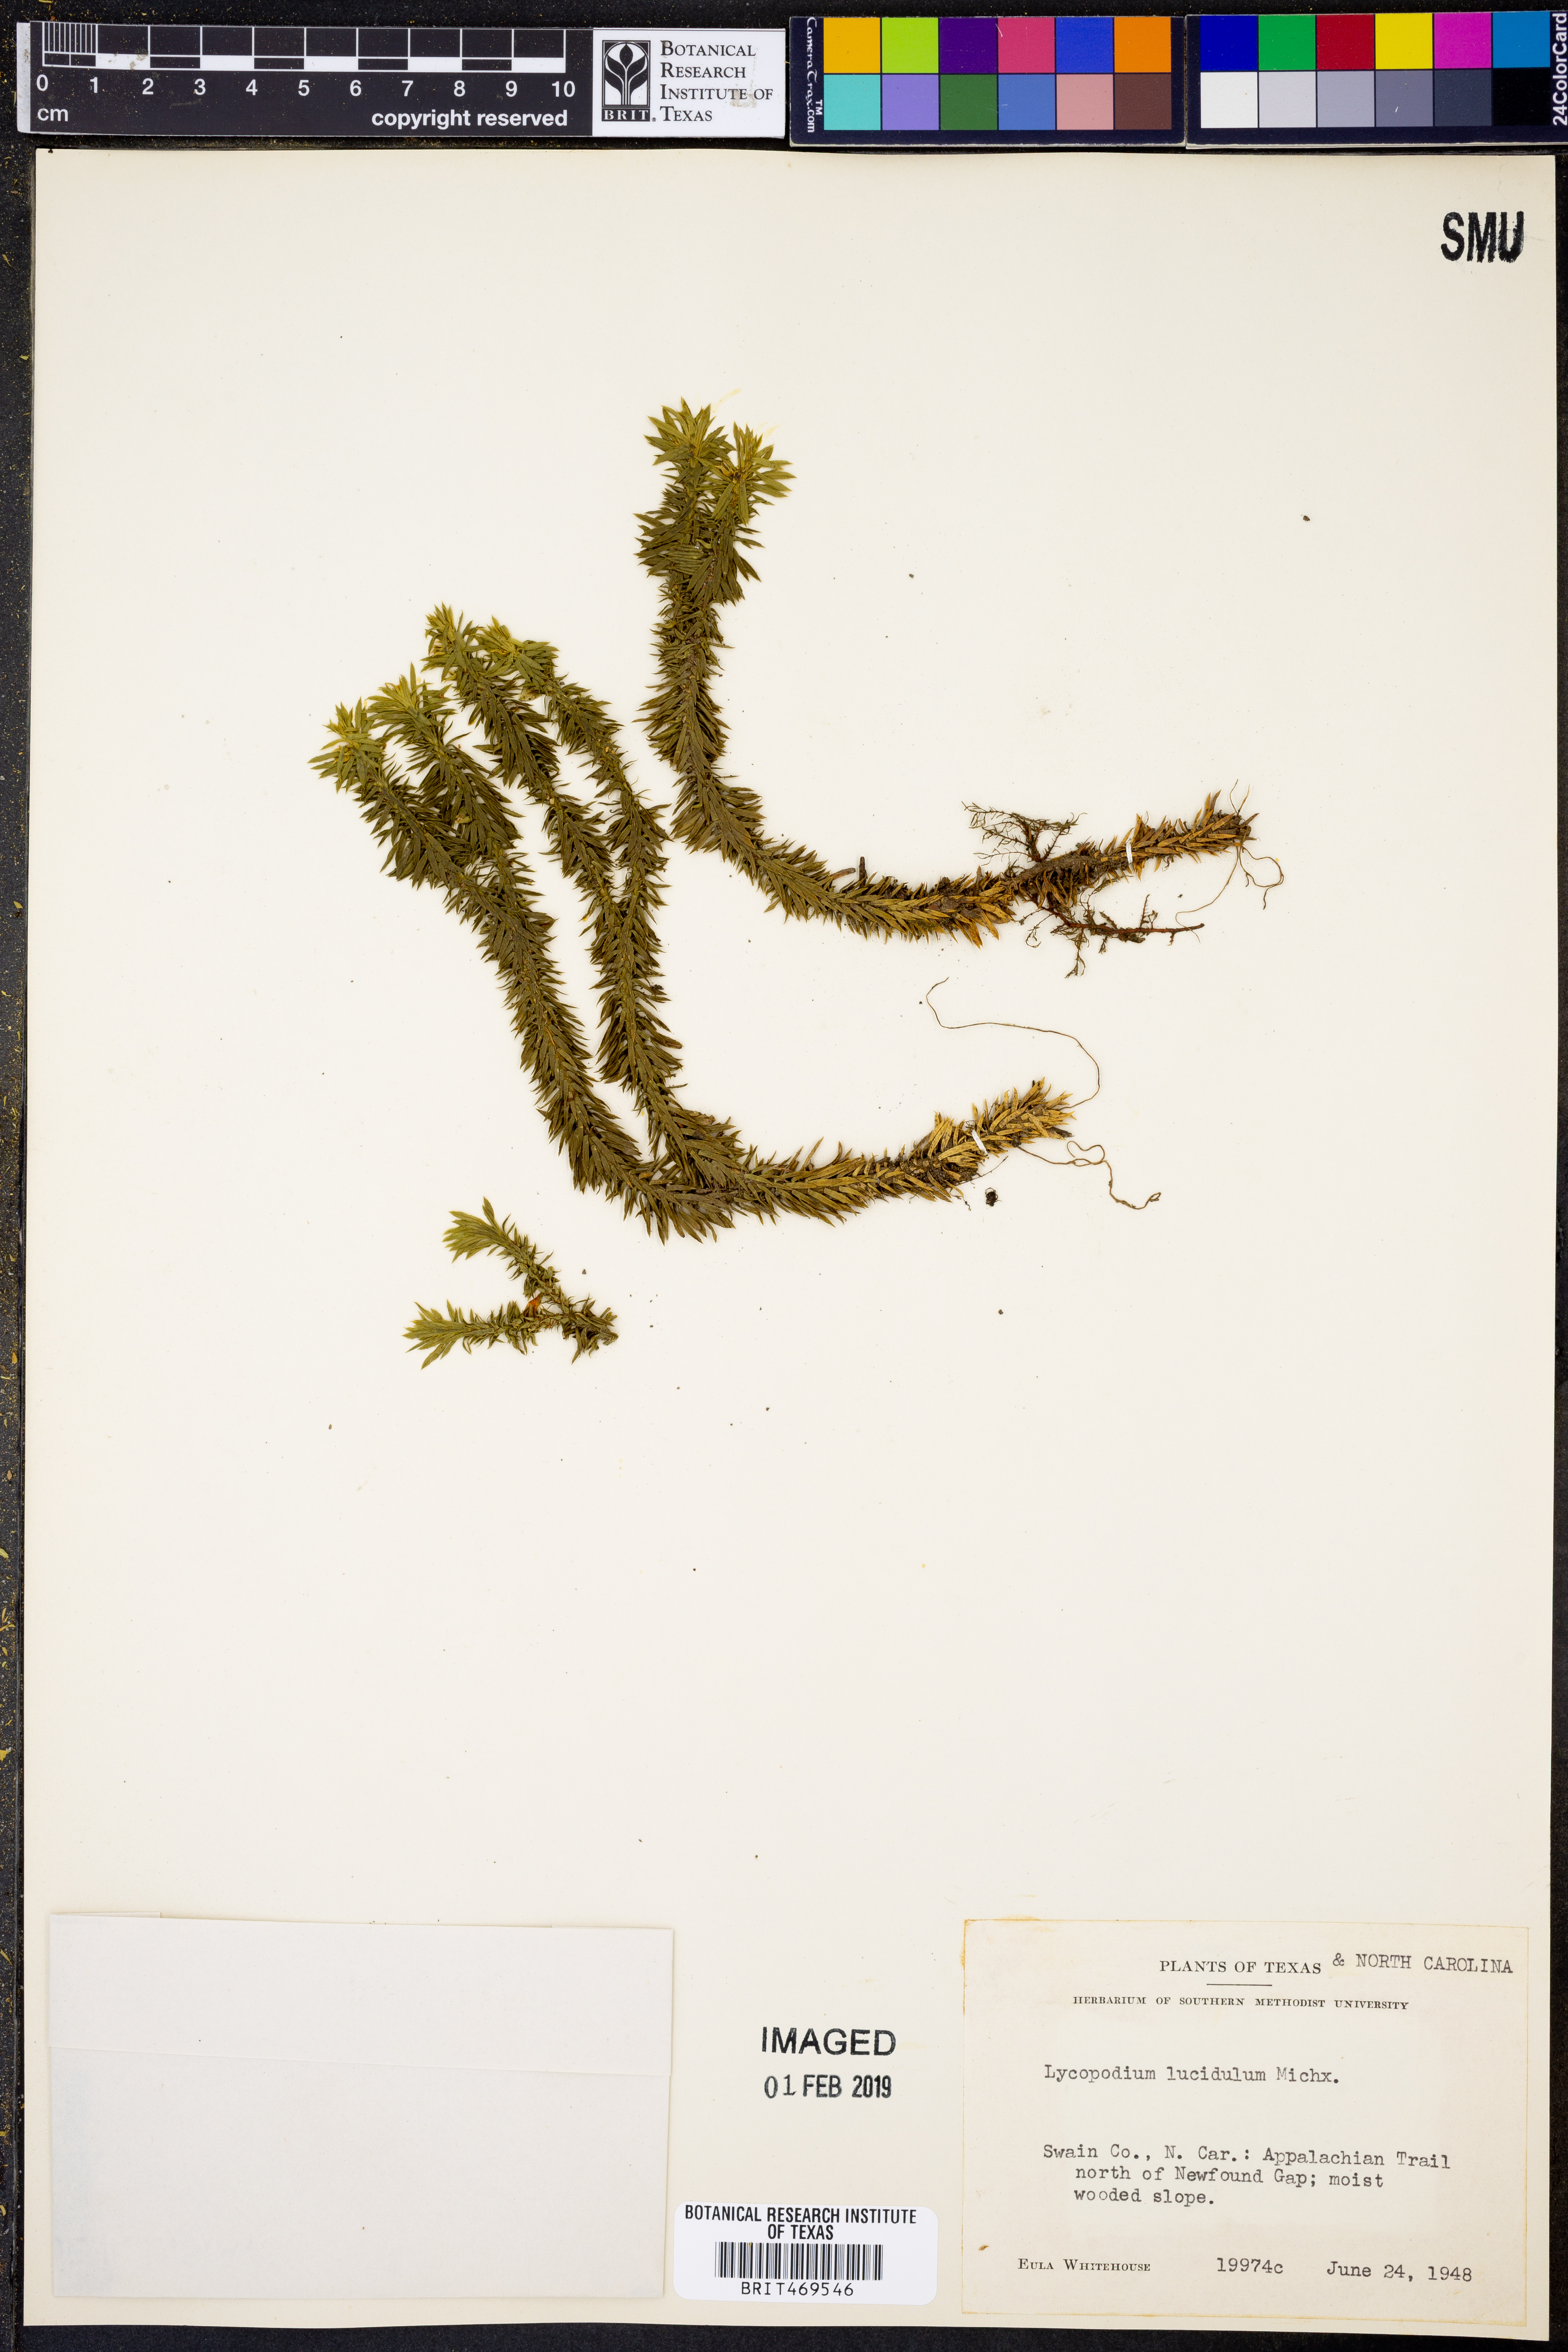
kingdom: Plantae
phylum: Tracheophyta
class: Lycopodiopsida
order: Lycopodiales
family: Lycopodiaceae
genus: Huperzia
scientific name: Huperzia lucidula
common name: Shining clubmoss
